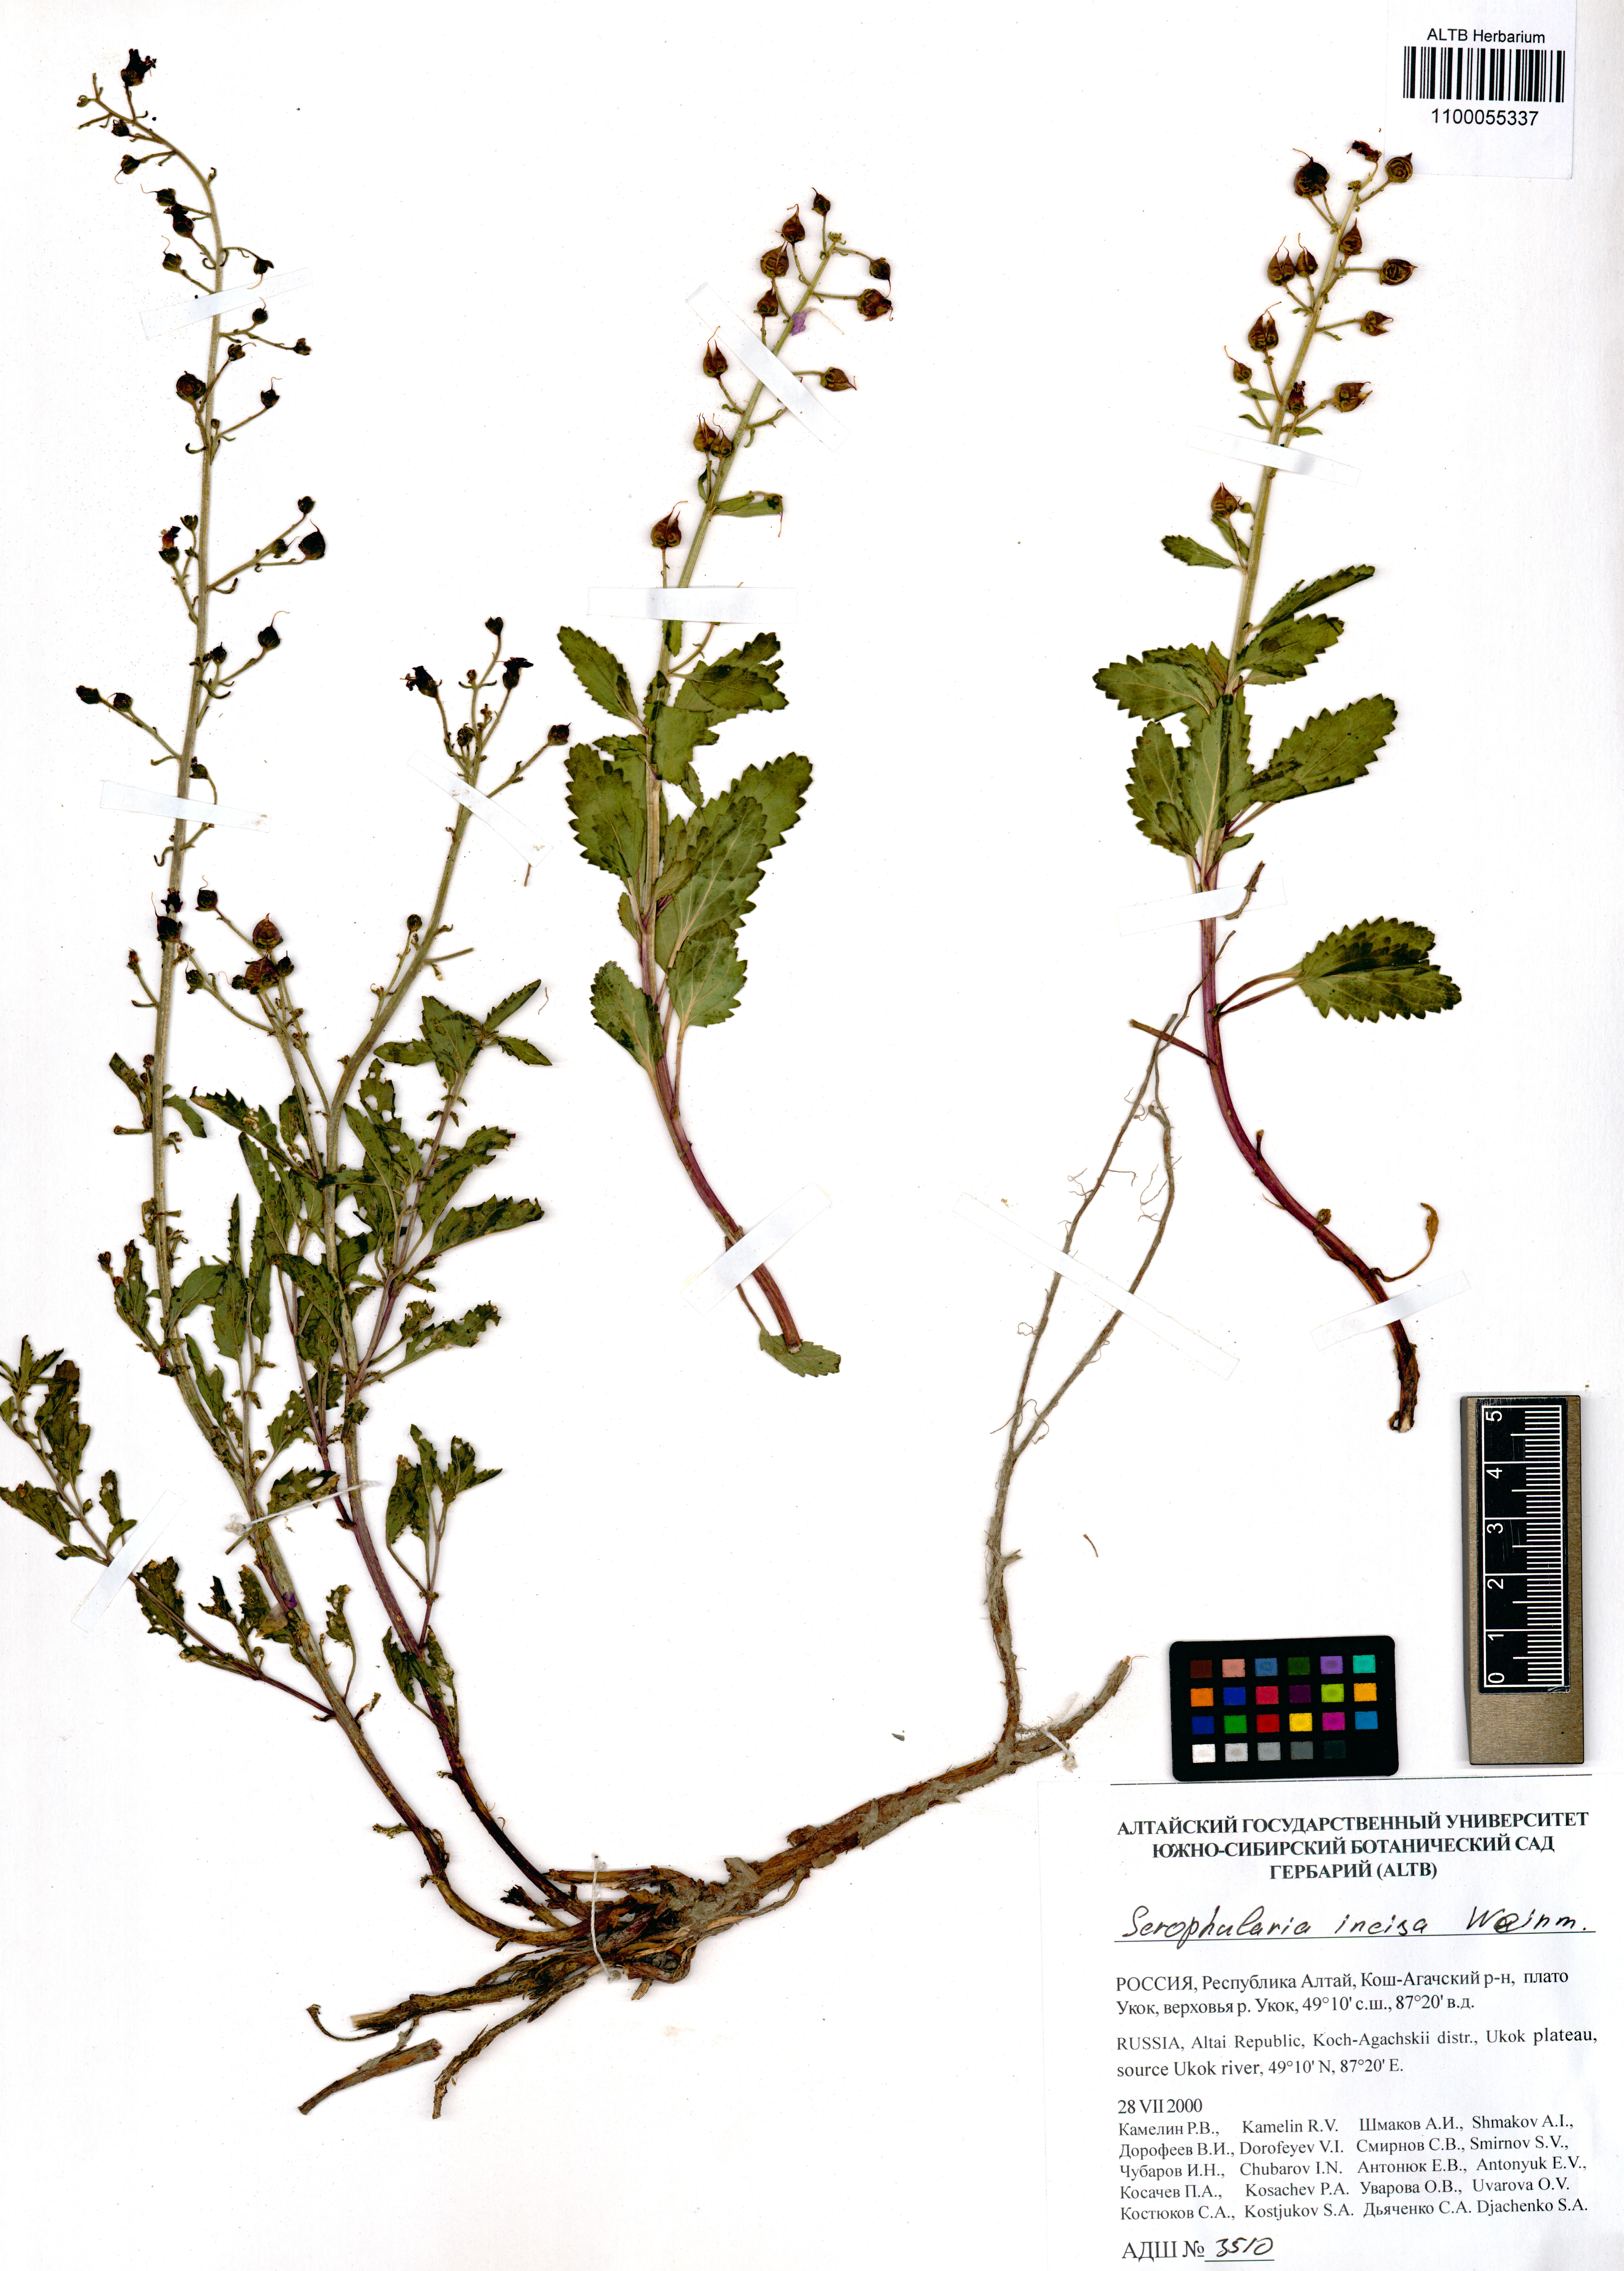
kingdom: Plantae
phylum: Tracheophyta
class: Magnoliopsida
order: Lamiales
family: Scrophulariaceae
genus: Scrophularia
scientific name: Scrophularia incisa
